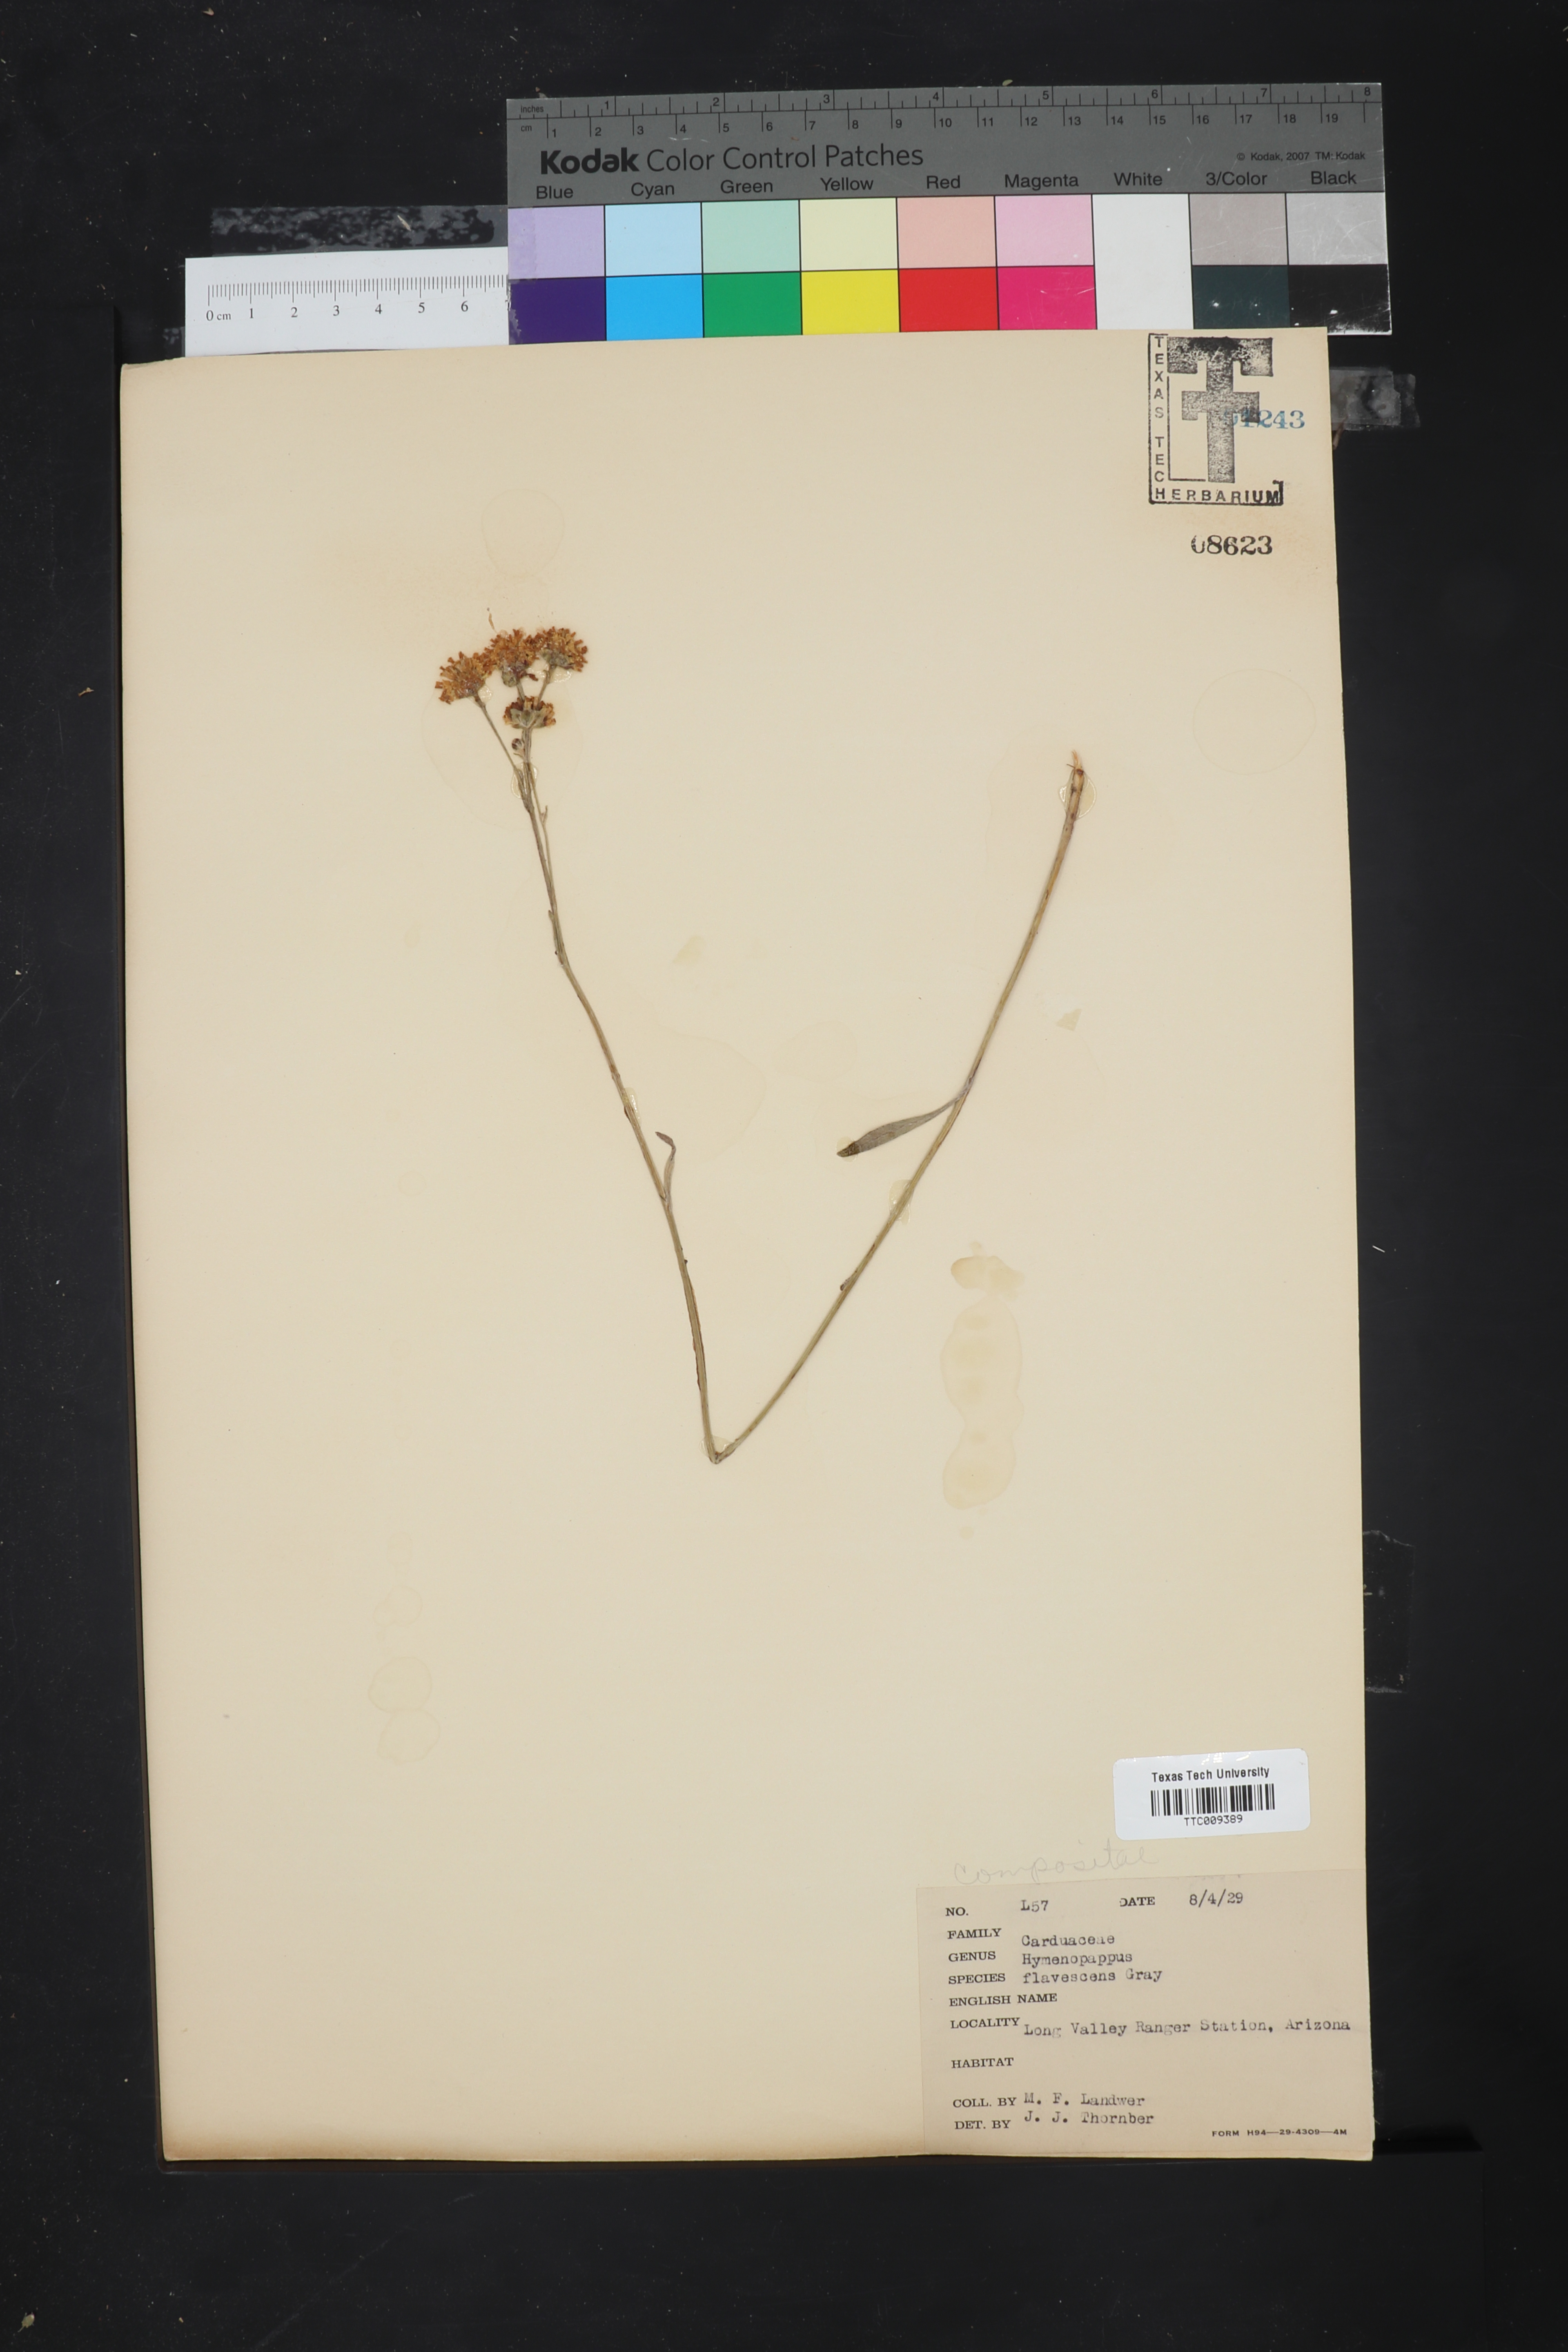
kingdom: Plantae
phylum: Tracheophyta
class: Magnoliopsida
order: Asterales
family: Asteraceae
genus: Hymenopappus
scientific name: Hymenopappus flavescens
